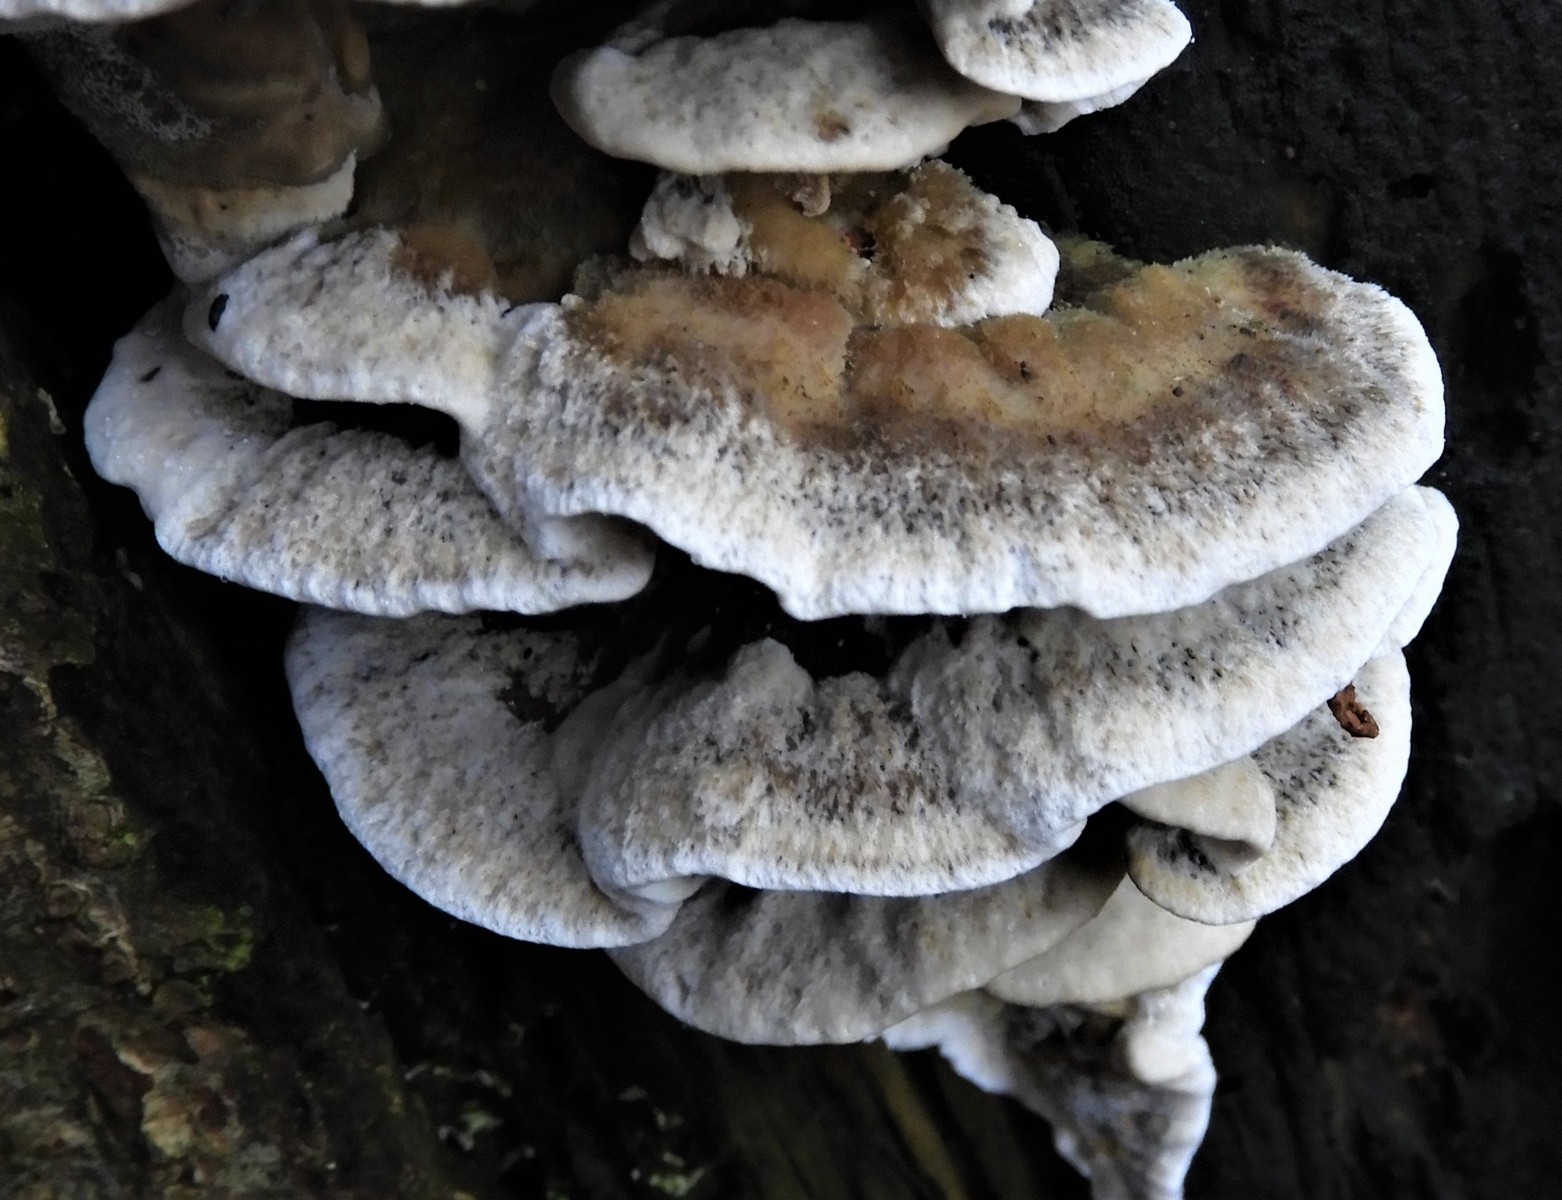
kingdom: Fungi
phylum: Basidiomycota
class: Agaricomycetes
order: Polyporales
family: Phanerochaetaceae
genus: Bjerkandera
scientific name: Bjerkandera adusta
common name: sveden sodporesvamp
